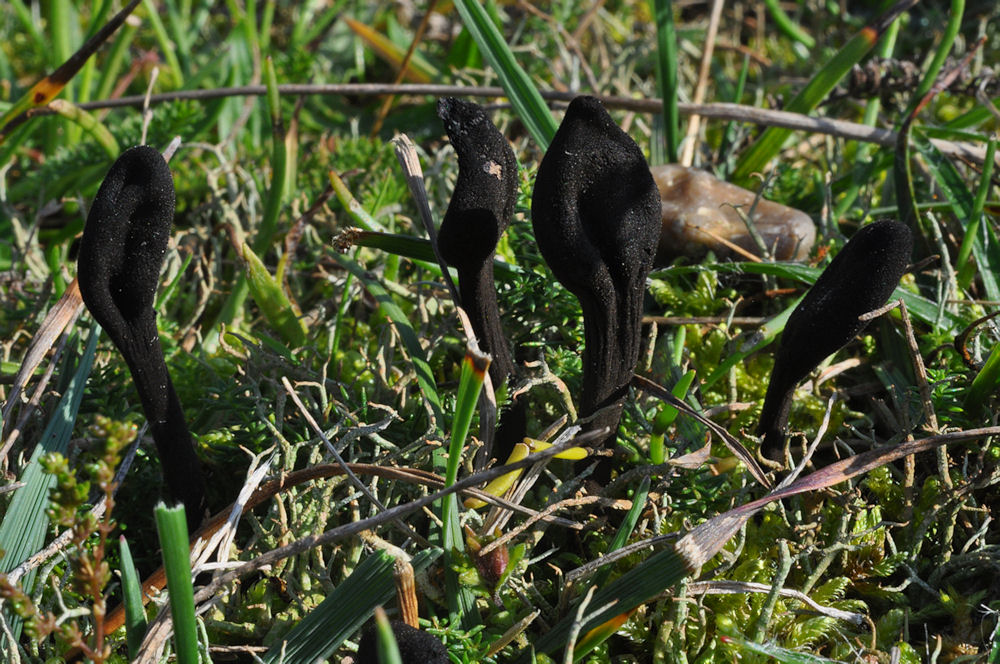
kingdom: Fungi
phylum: Ascomycota
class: Geoglossomycetes
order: Geoglossales
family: Geoglossaceae
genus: Trichoglossum
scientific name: Trichoglossum hirsutum
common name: håret jordtunge
